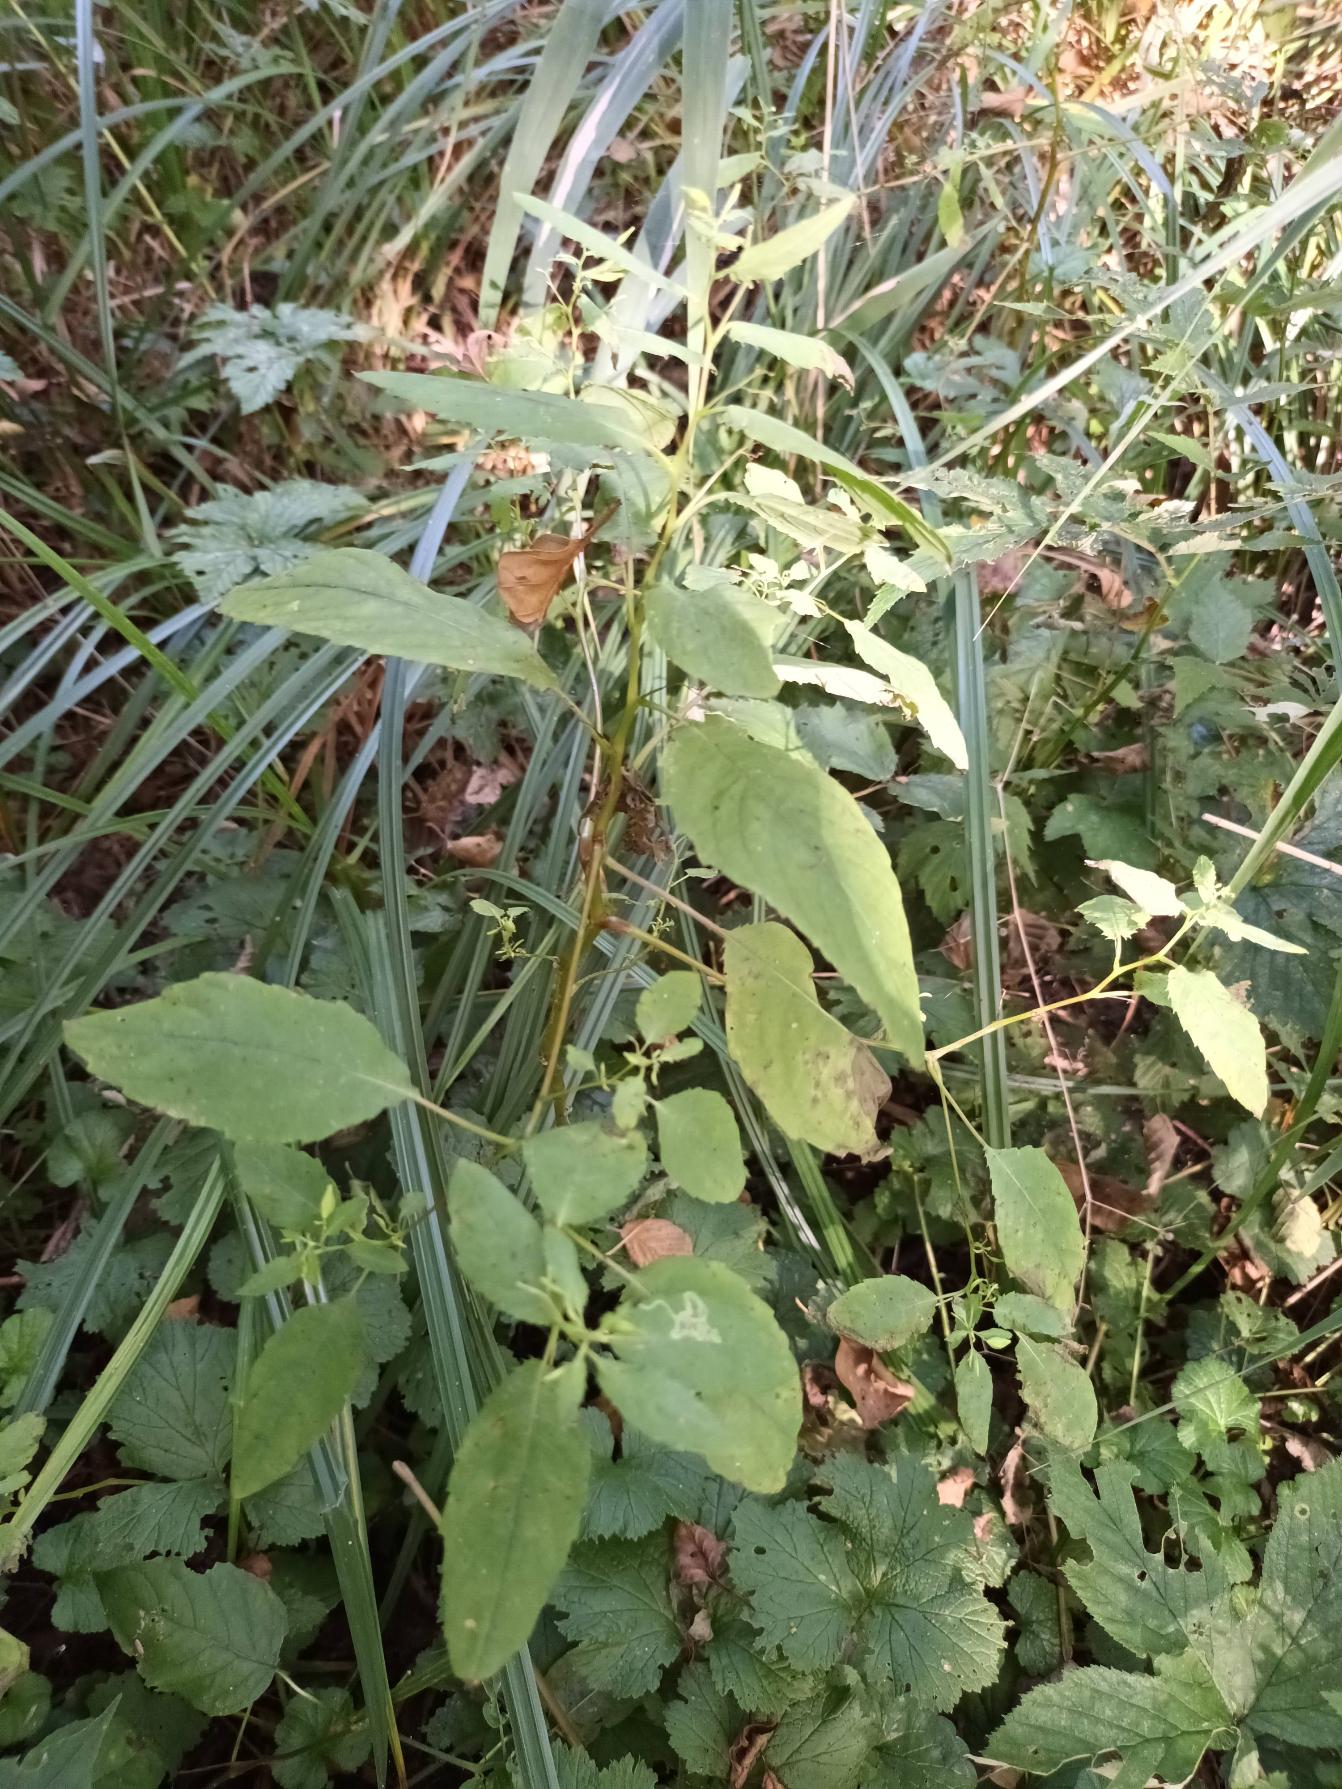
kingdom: Plantae
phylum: Tracheophyta
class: Magnoliopsida
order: Ericales
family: Balsaminaceae
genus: Impatiens
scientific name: Impatiens noli-tangere
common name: Spring-balsamin
